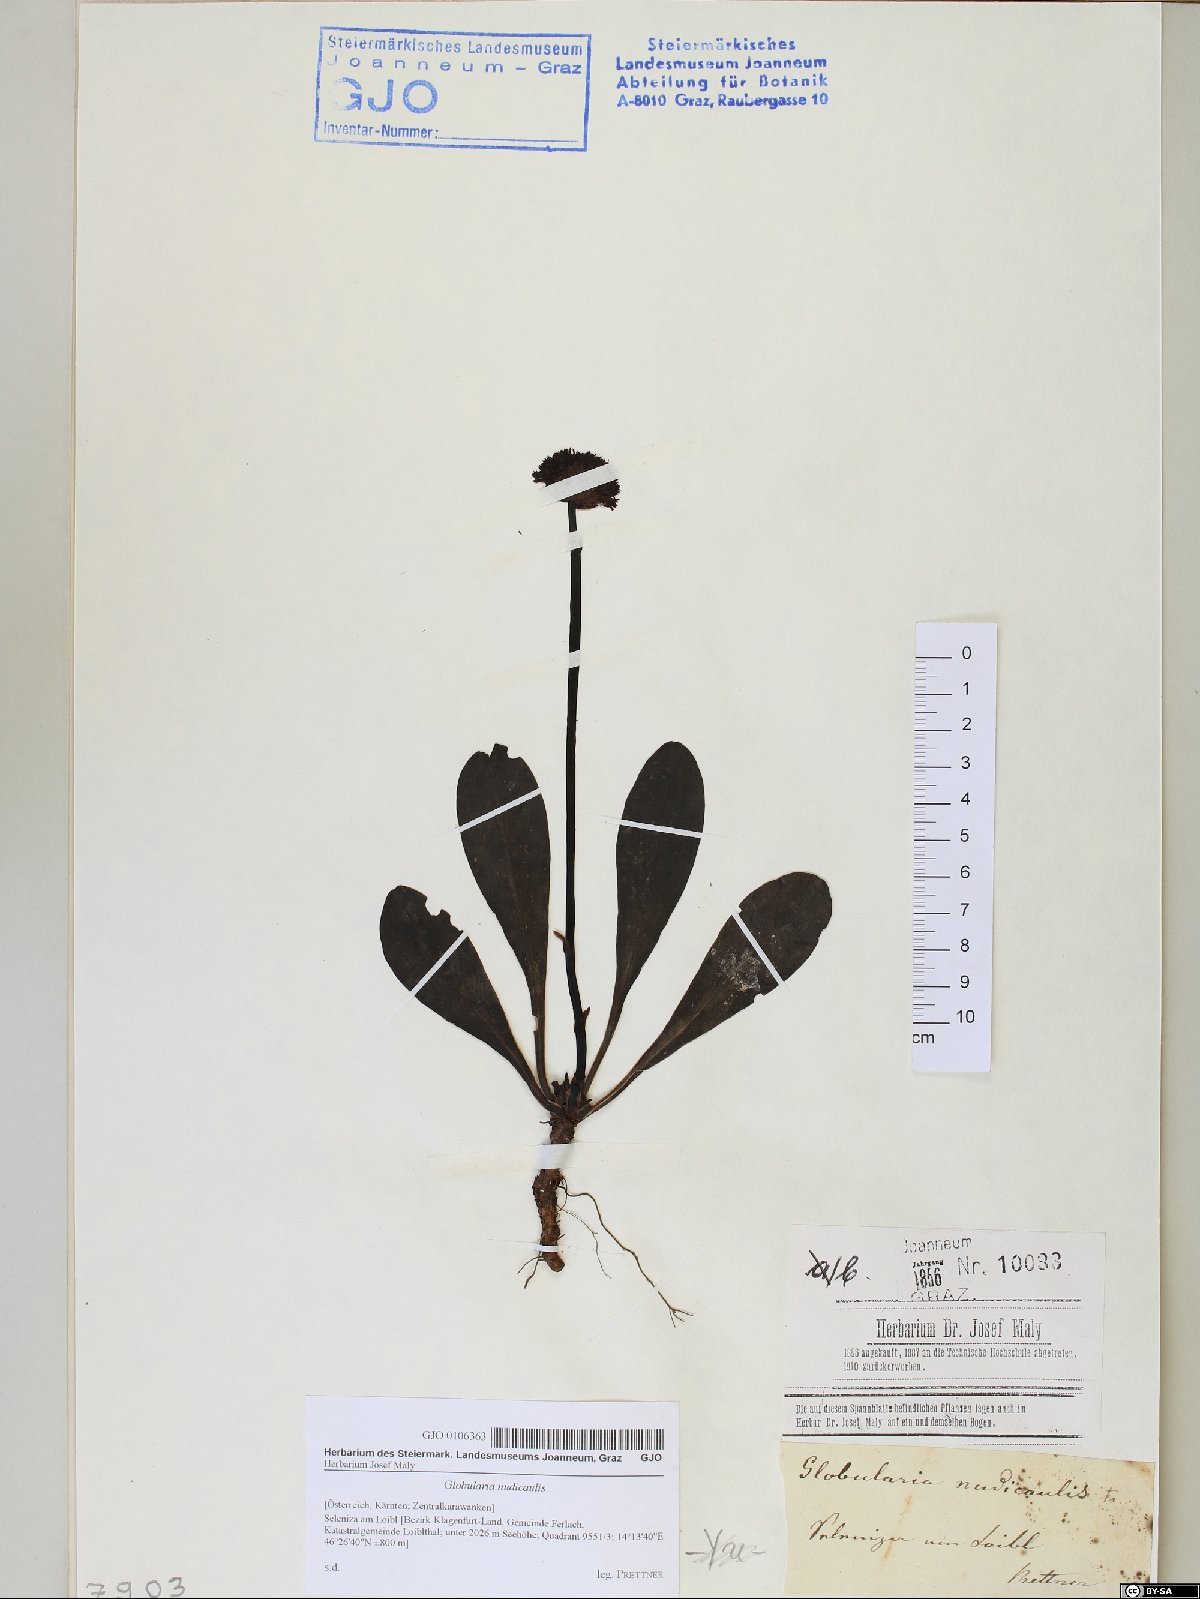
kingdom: Plantae
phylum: Tracheophyta
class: Magnoliopsida
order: Lamiales
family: Plantaginaceae
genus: Globularia
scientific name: Globularia nudicaulis
